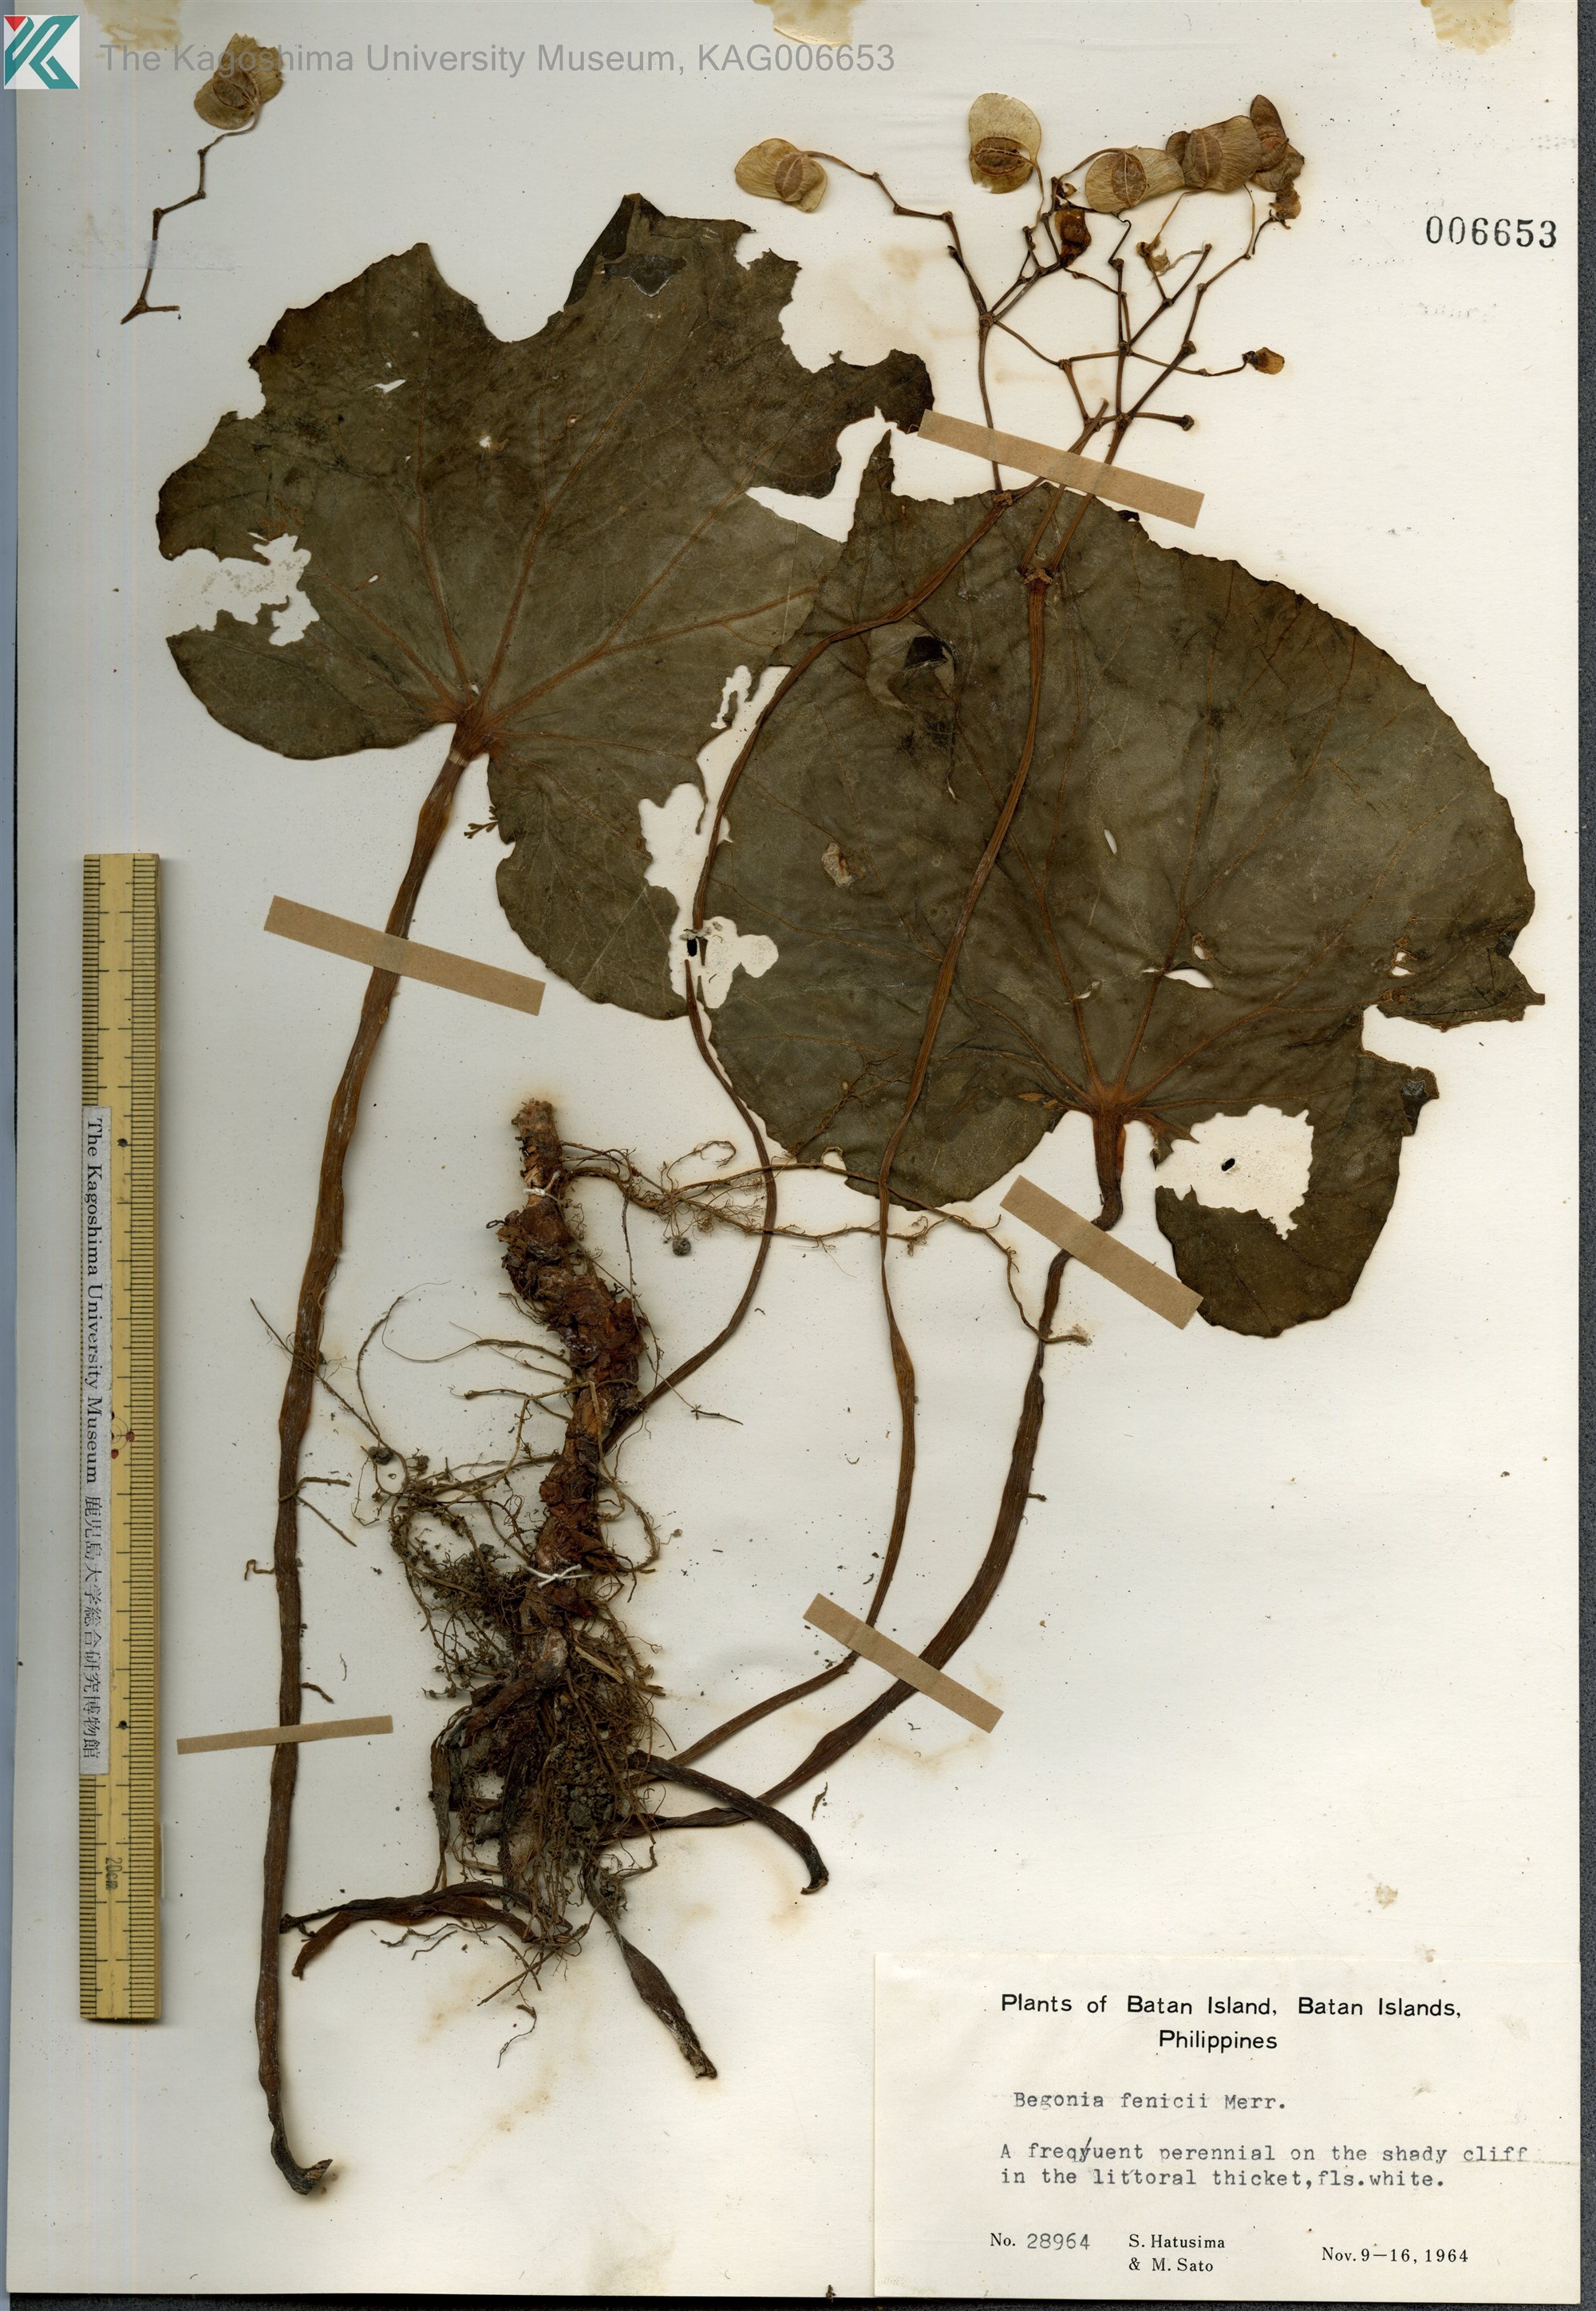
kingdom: Plantae
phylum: Tracheophyta
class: Magnoliopsida
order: Cucurbitales
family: Begoniaceae
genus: Begonia
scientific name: Begonia fenicis
